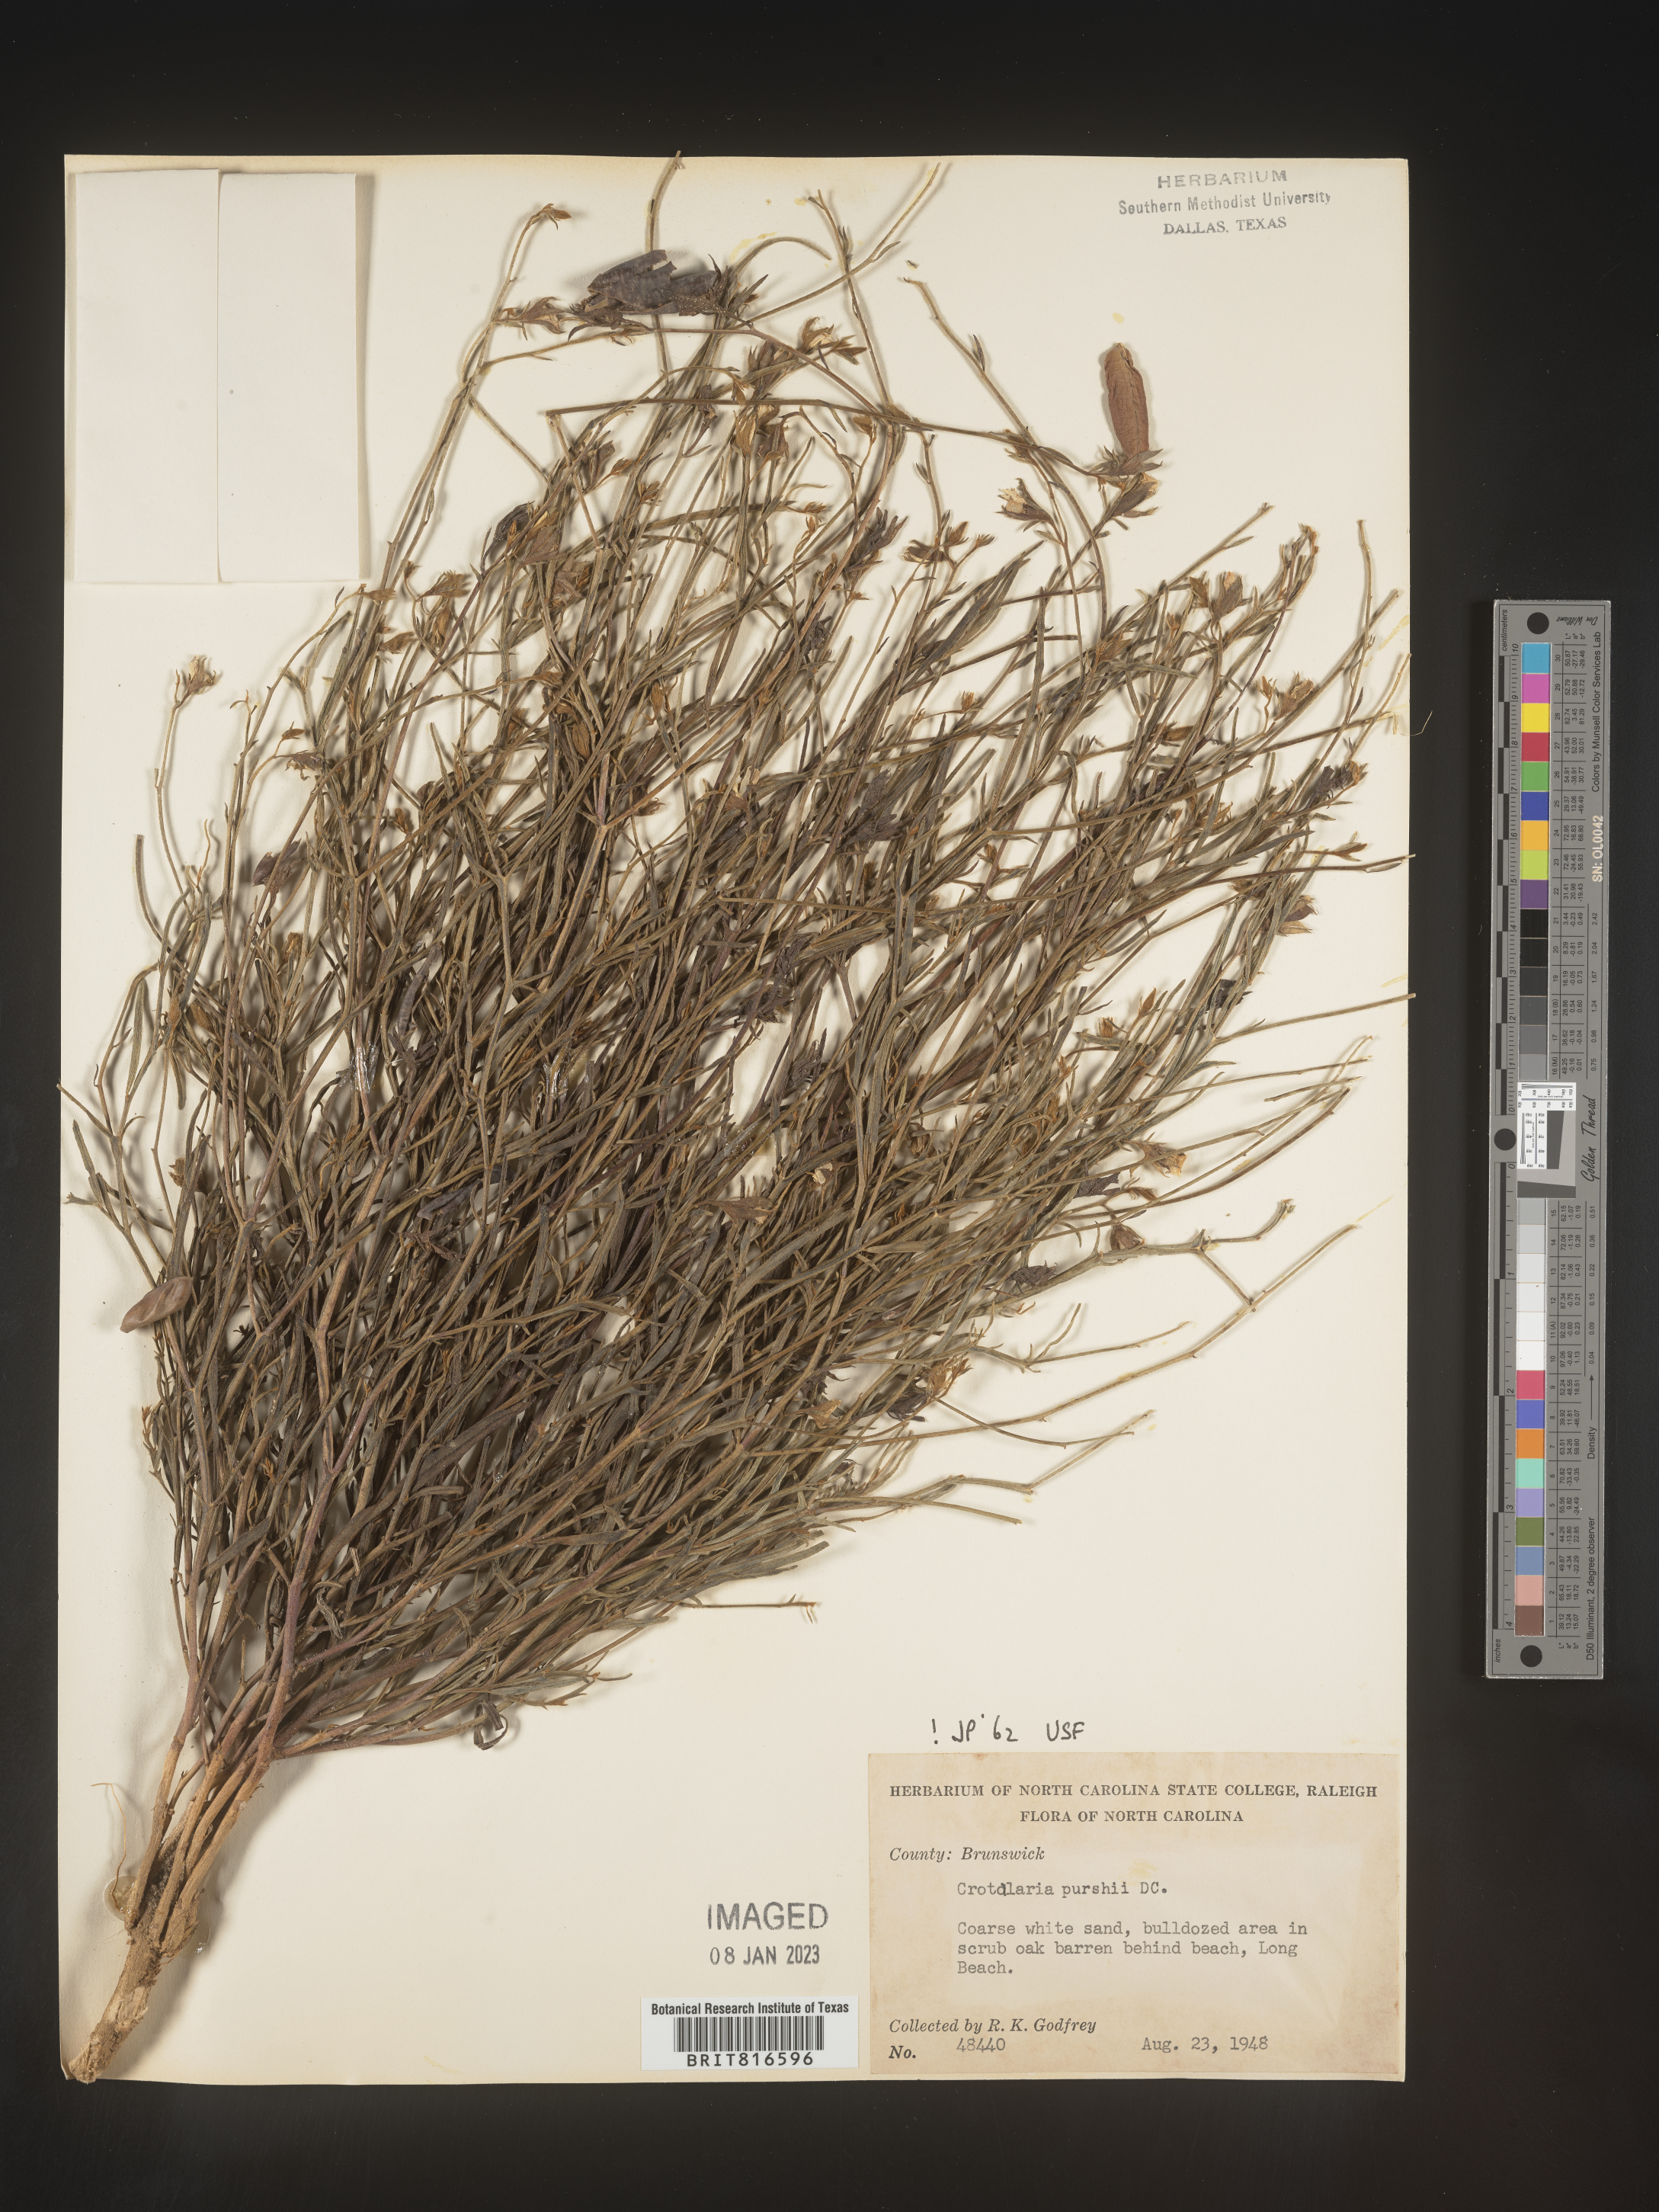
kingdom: Plantae
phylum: Tracheophyta
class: Magnoliopsida
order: Fabales
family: Fabaceae
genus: Crotalaria
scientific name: Crotalaria purshii
